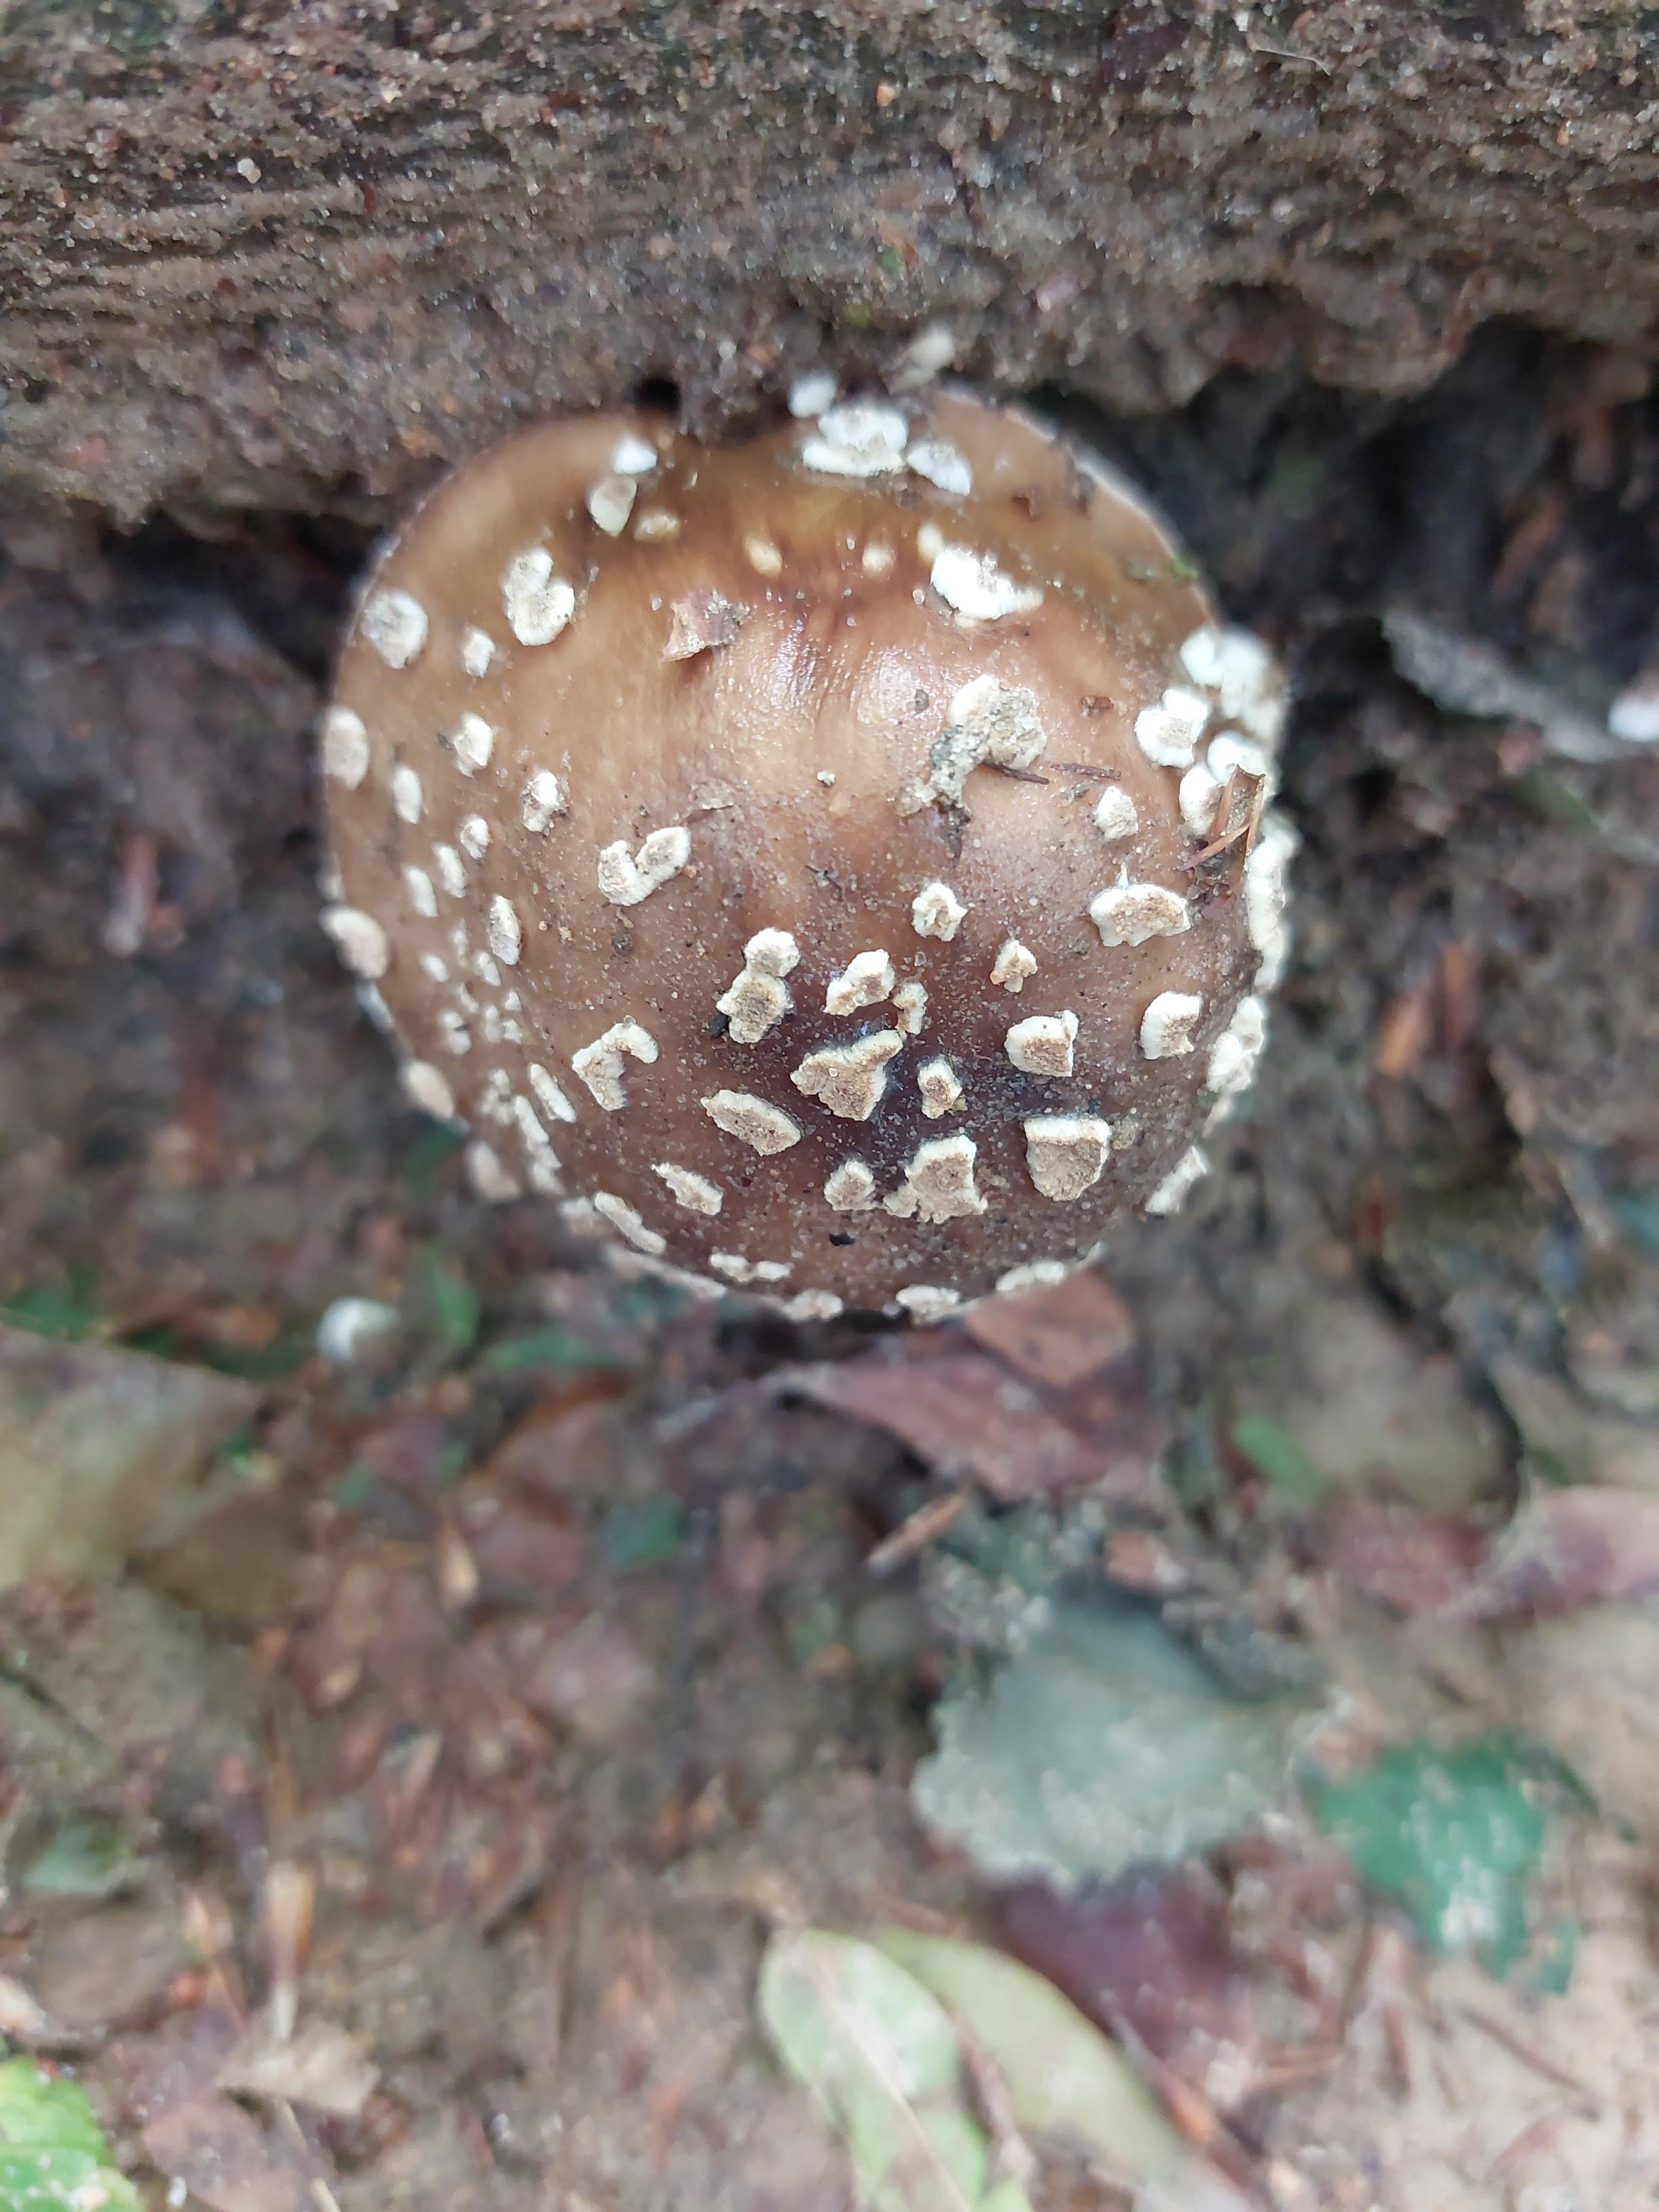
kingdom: Fungi
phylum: Basidiomycota
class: Agaricomycetes
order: Agaricales
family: Amanitaceae
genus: Amanita
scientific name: Amanita pantherina
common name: panter-fluesvamp
